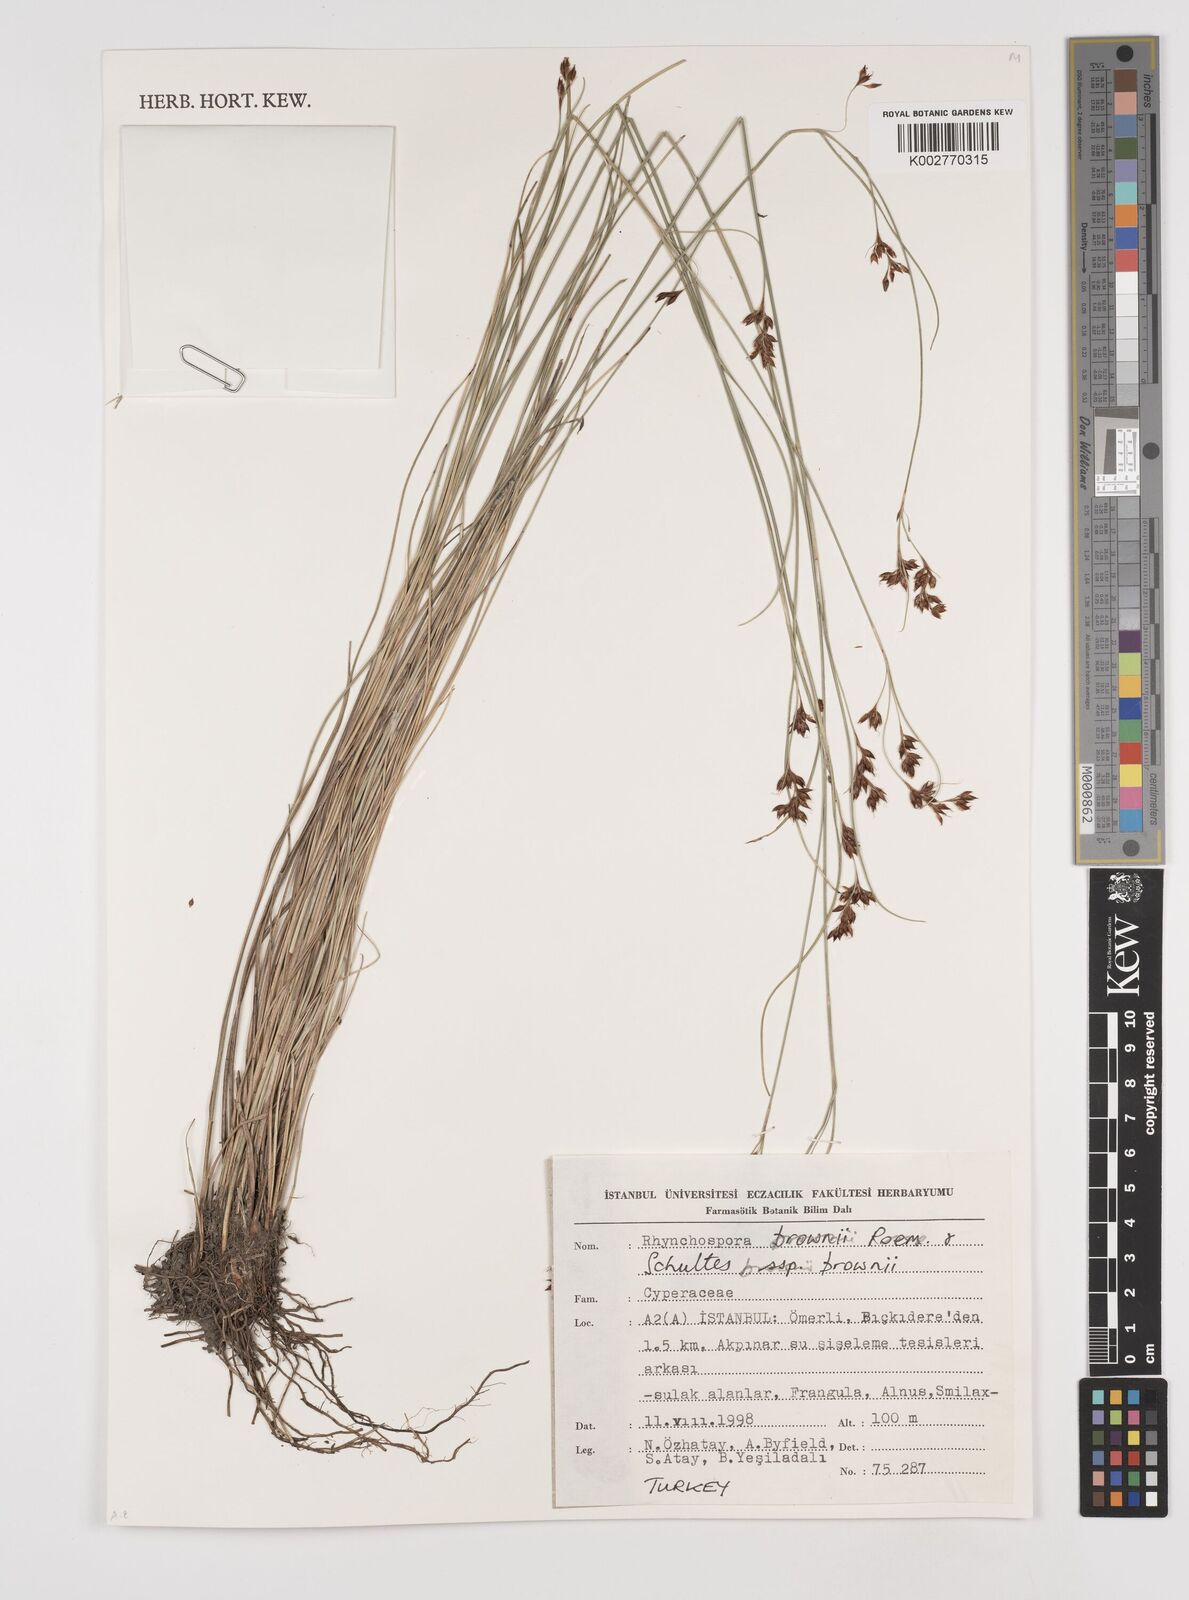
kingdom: Plantae
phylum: Tracheophyta
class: Liliopsida
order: Poales
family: Cyperaceae
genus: Rhynchospora
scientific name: Rhynchospora brownii
